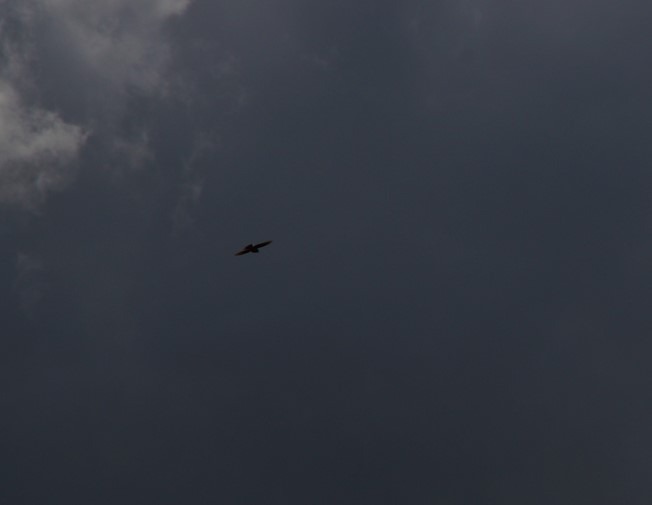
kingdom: Animalia
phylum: Chordata
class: Aves
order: Passeriformes
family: Alaudidae
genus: Alauda
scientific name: Alauda arvensis
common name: Sanglærke
